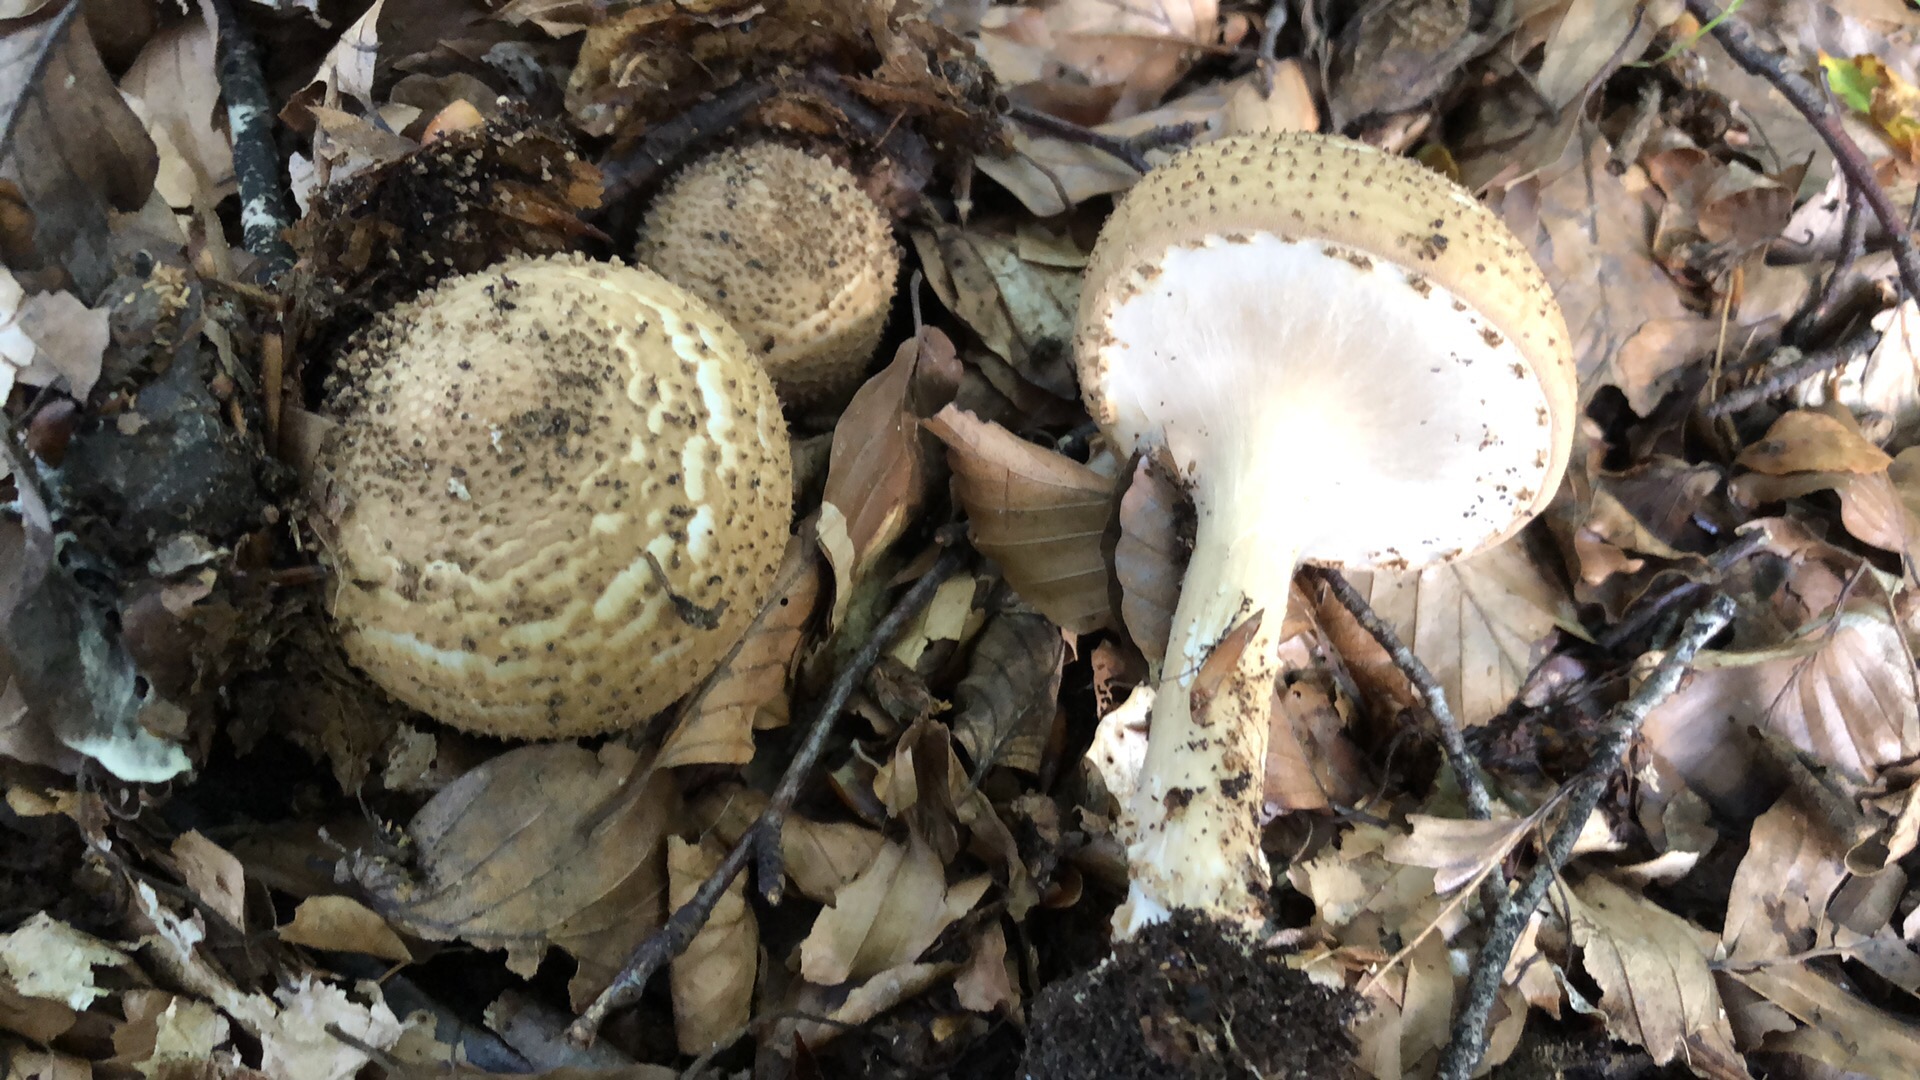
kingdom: Fungi
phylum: Basidiomycota
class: Agaricomycetes
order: Agaricales
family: Agaricaceae
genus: Echinoderma
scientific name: Echinoderma asperum
